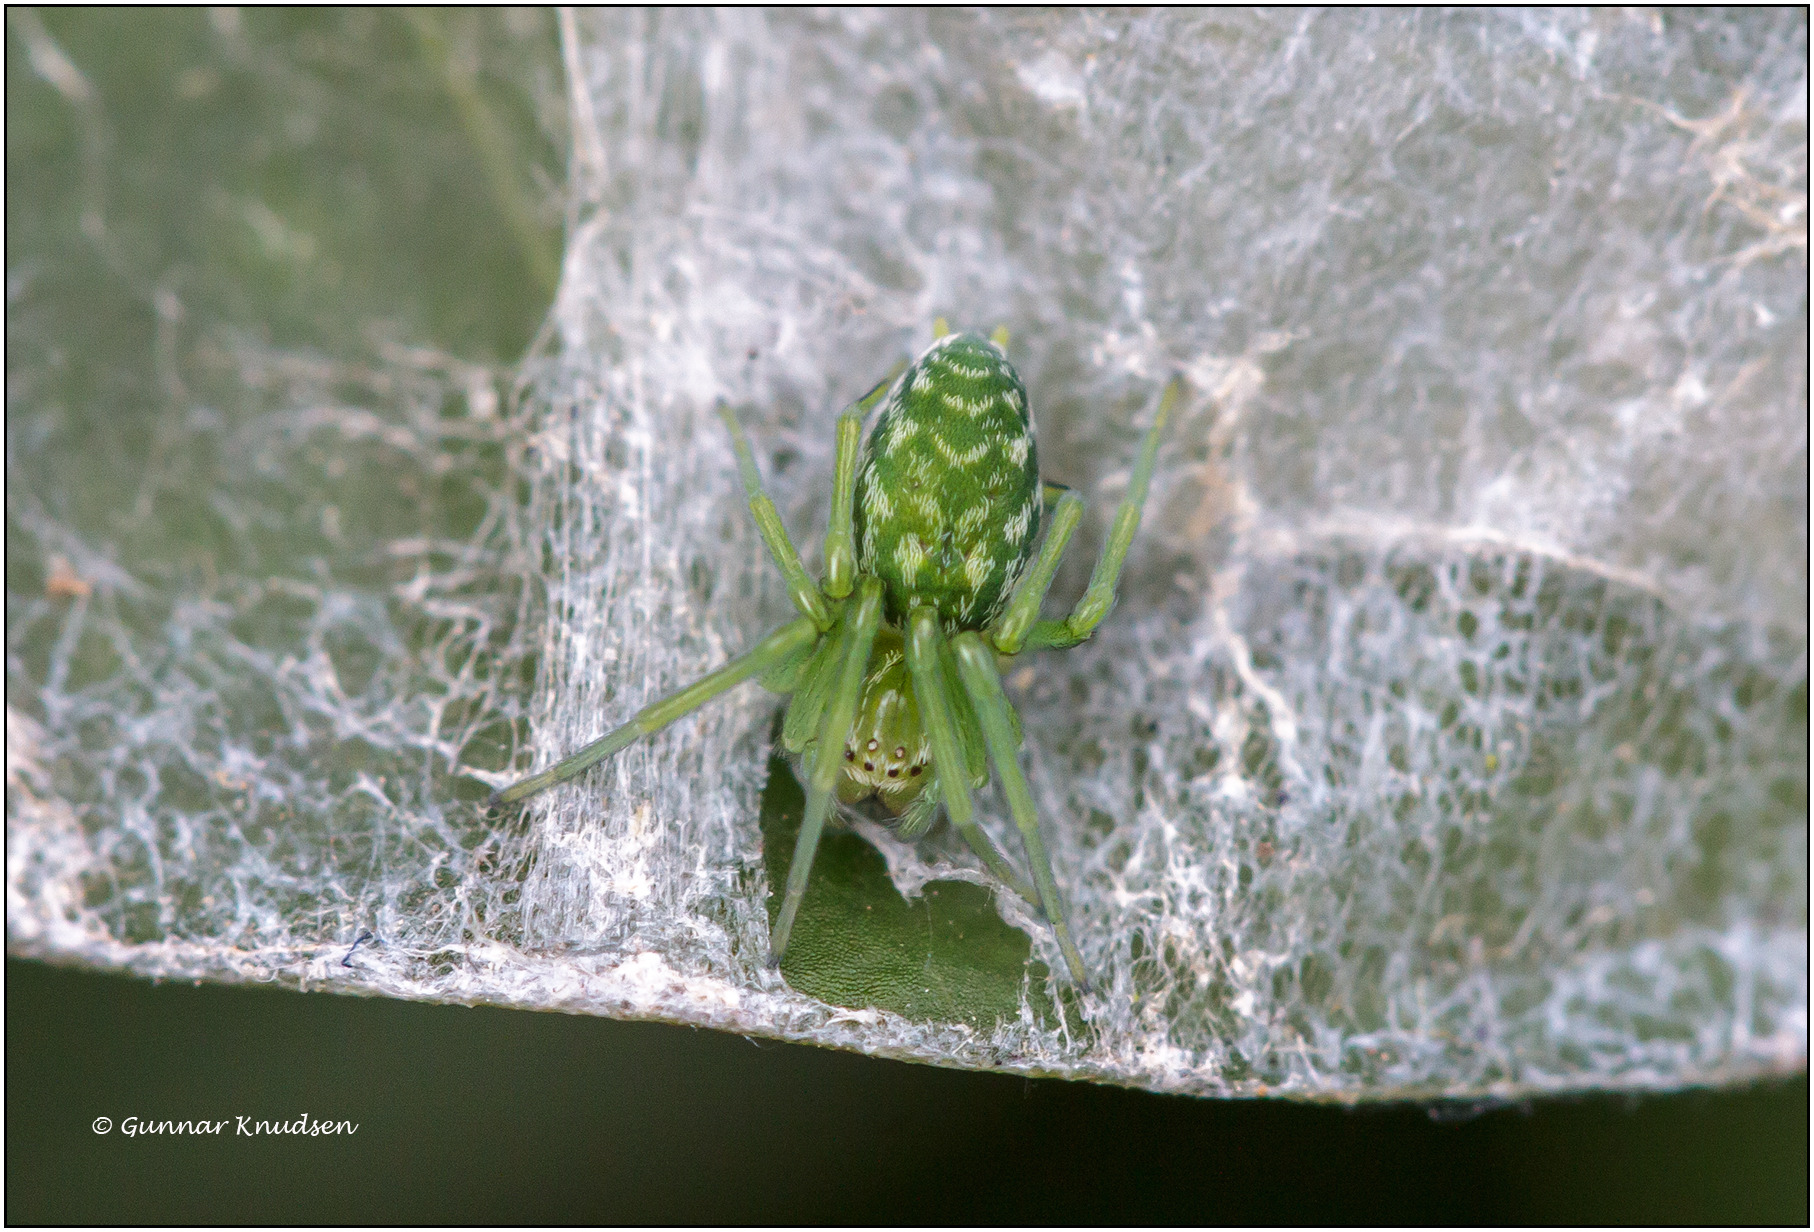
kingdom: Animalia
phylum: Arthropoda
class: Arachnida
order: Araneae
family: Dictynidae
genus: Nigma
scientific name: Nigma walckenaeri
